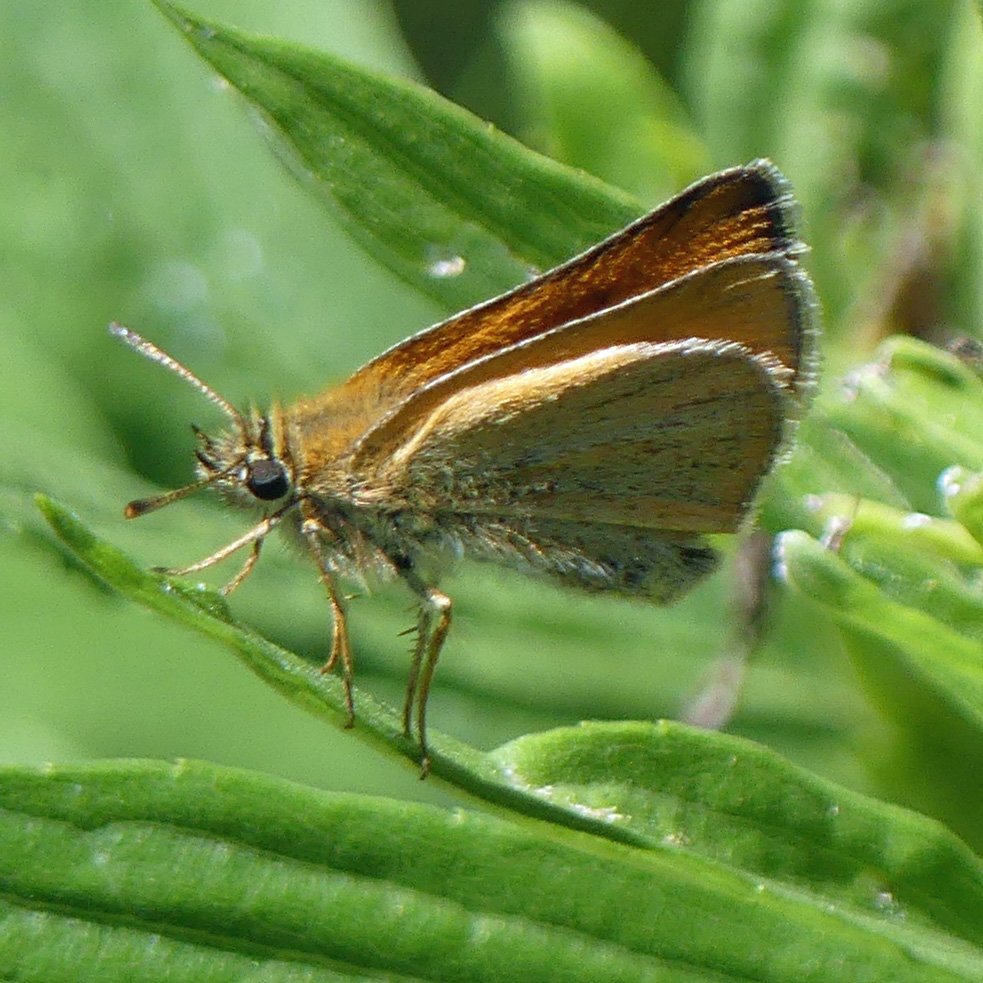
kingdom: Animalia
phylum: Arthropoda
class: Insecta
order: Lepidoptera
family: Hesperiidae
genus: Thymelicus
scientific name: Thymelicus lineola
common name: European Skipper
